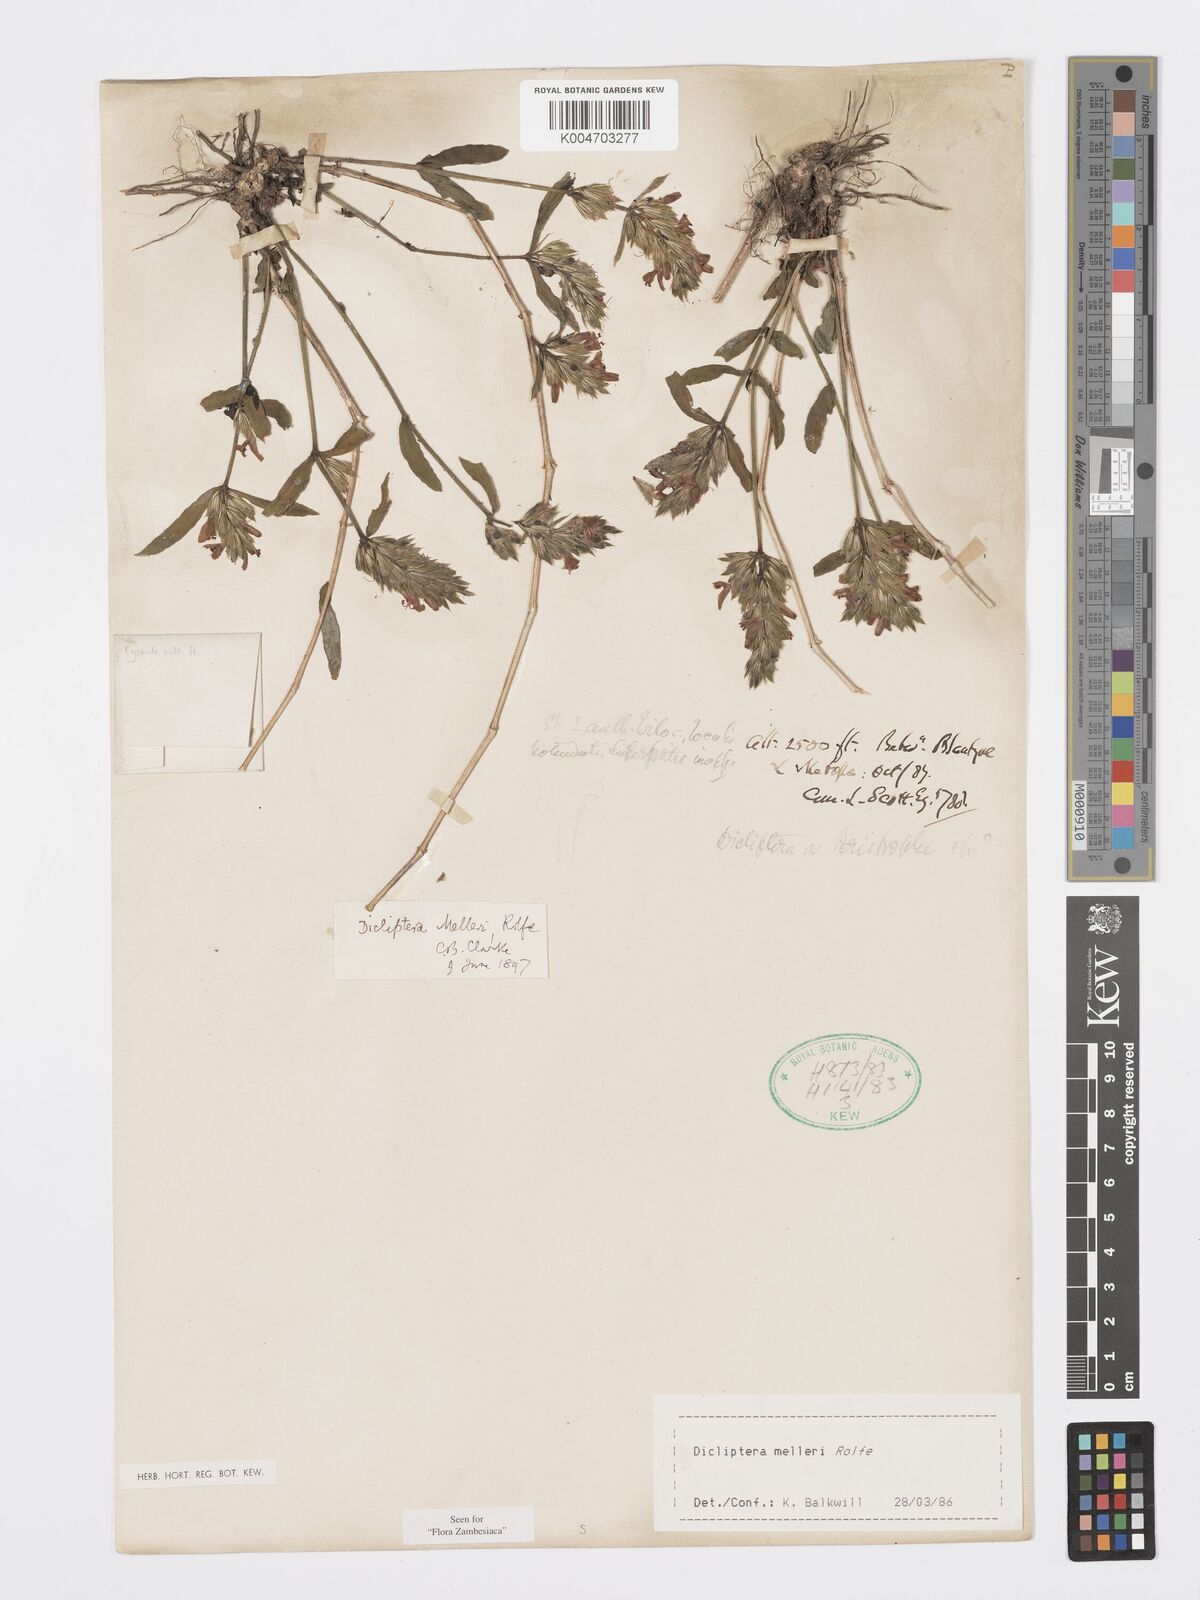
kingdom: Plantae
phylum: Tracheophyta
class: Magnoliopsida
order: Lamiales
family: Acanthaceae
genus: Dicliptera
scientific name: Dicliptera melleri
